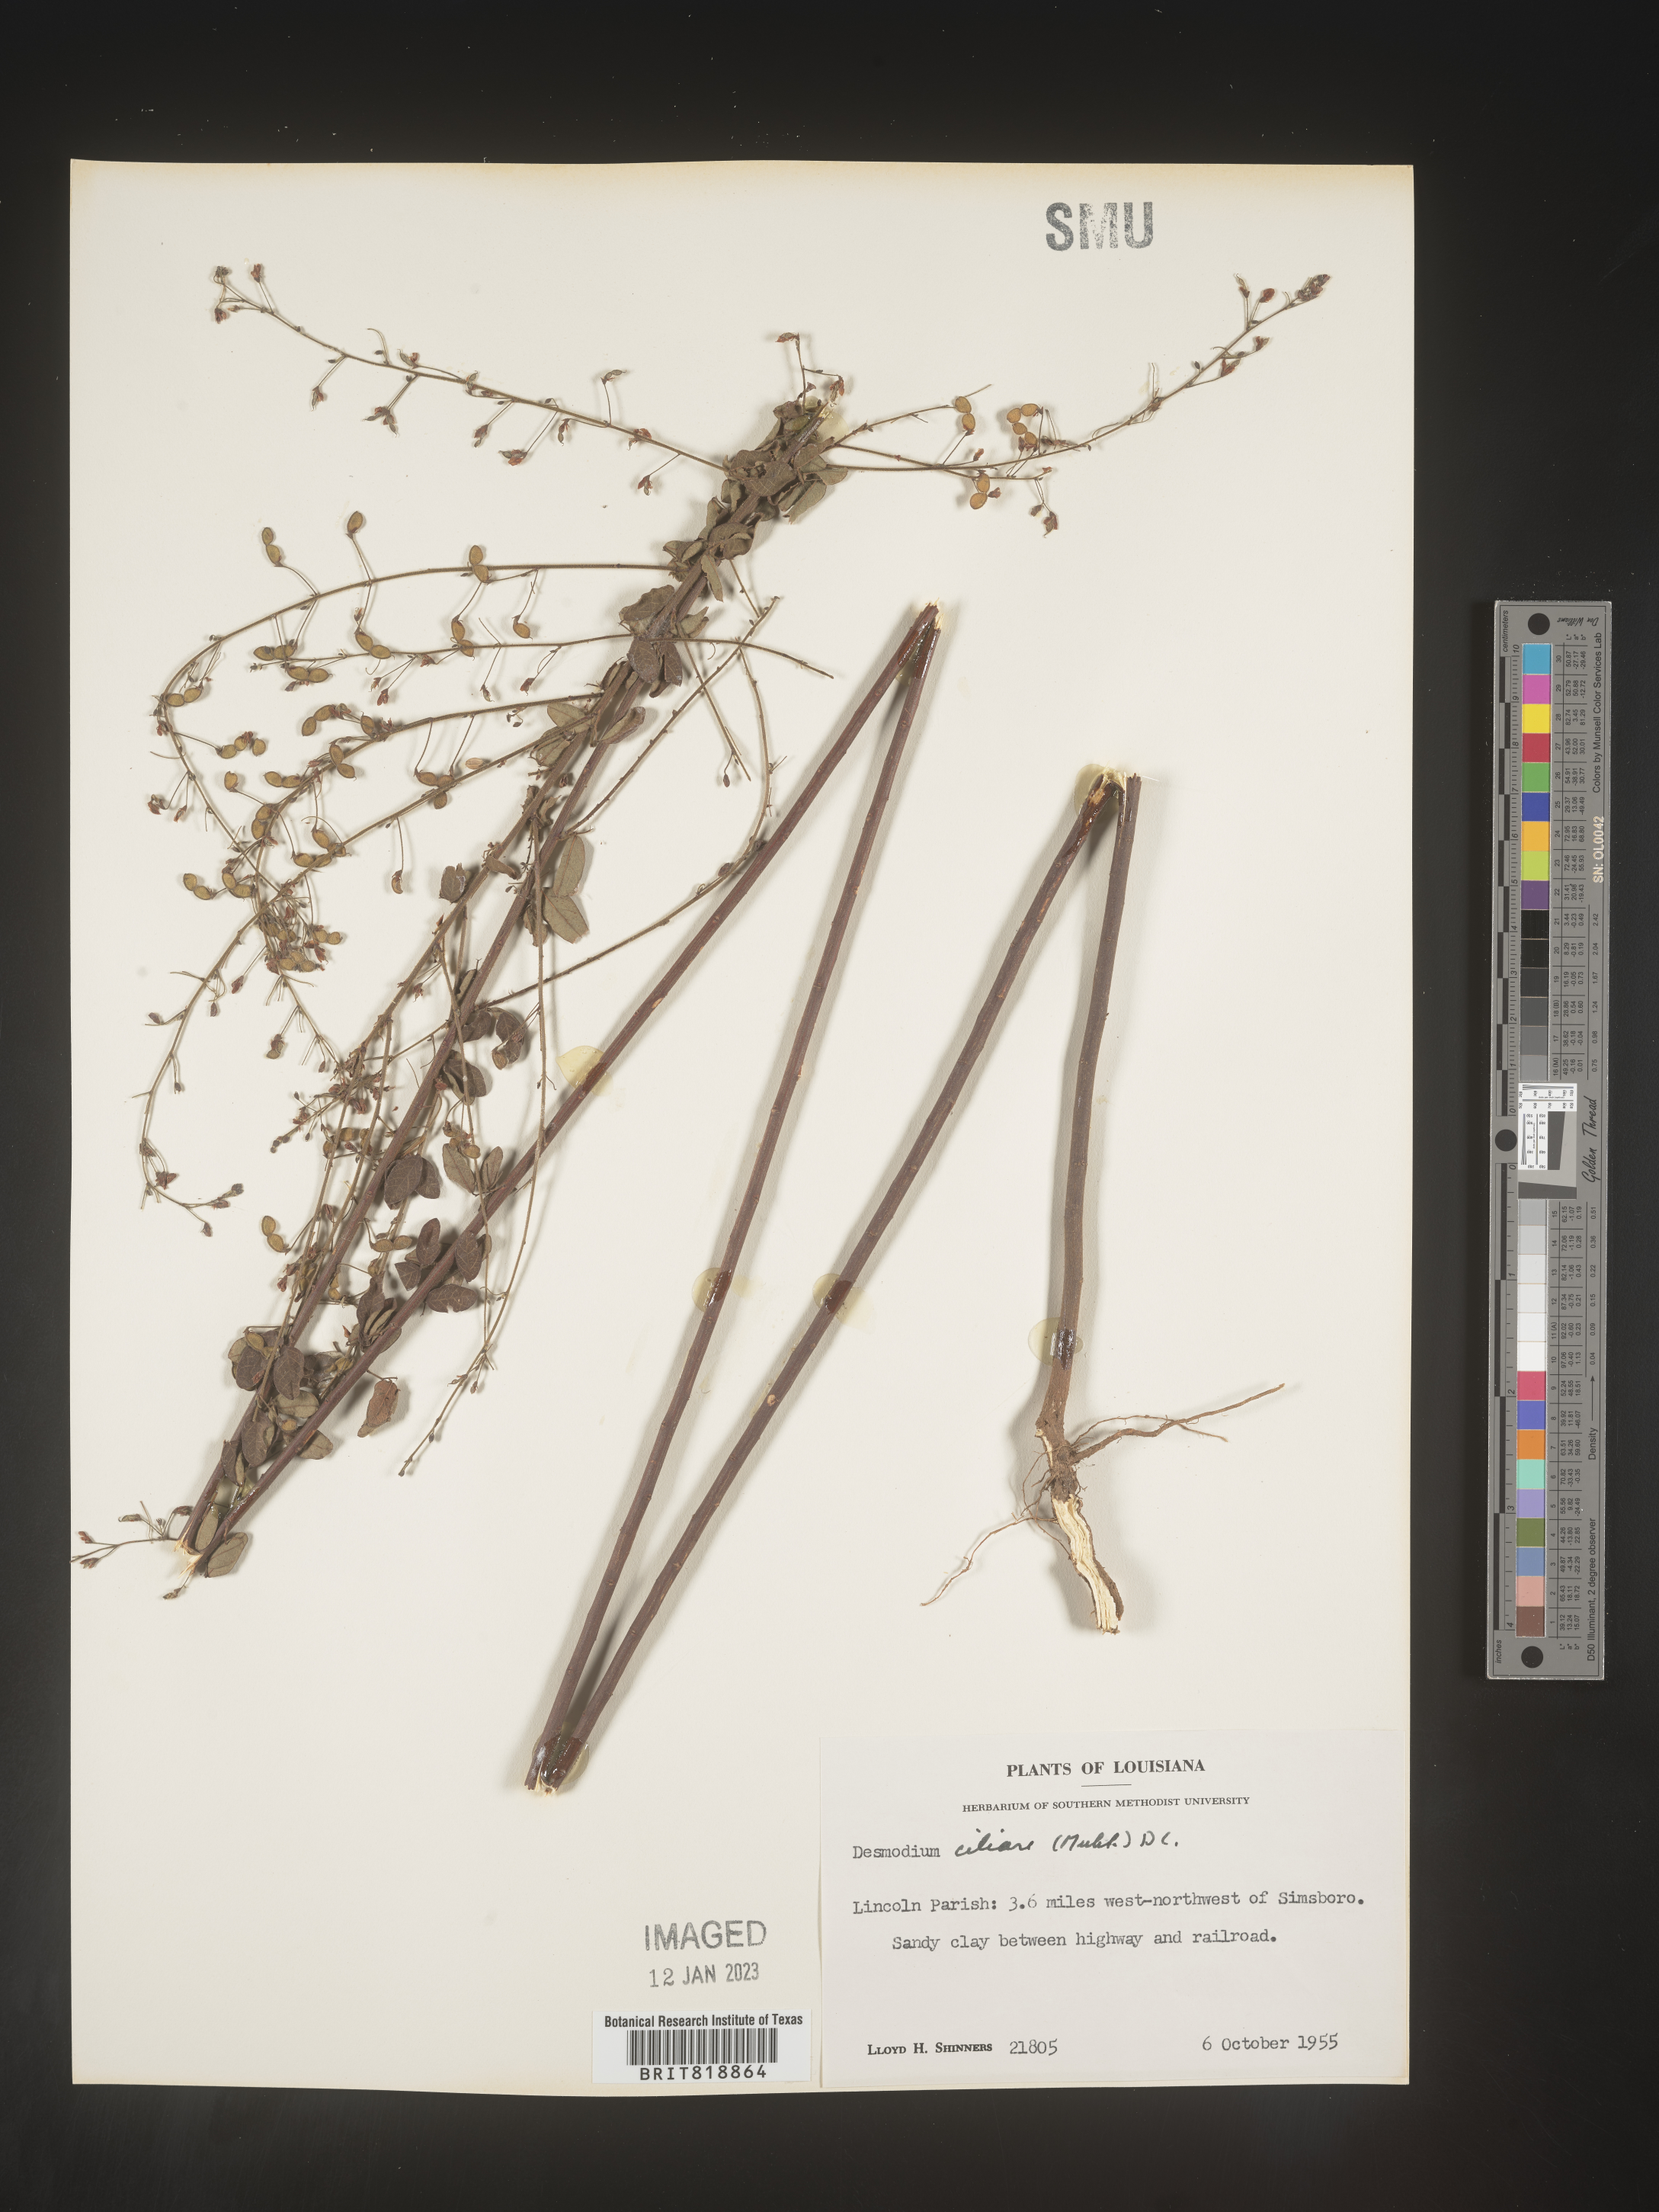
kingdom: Plantae
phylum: Tracheophyta
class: Magnoliopsida
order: Fabales
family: Fabaceae
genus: Desmodium
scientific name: Desmodium ciliare
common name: Hairy small-leaf ticktrefoil
